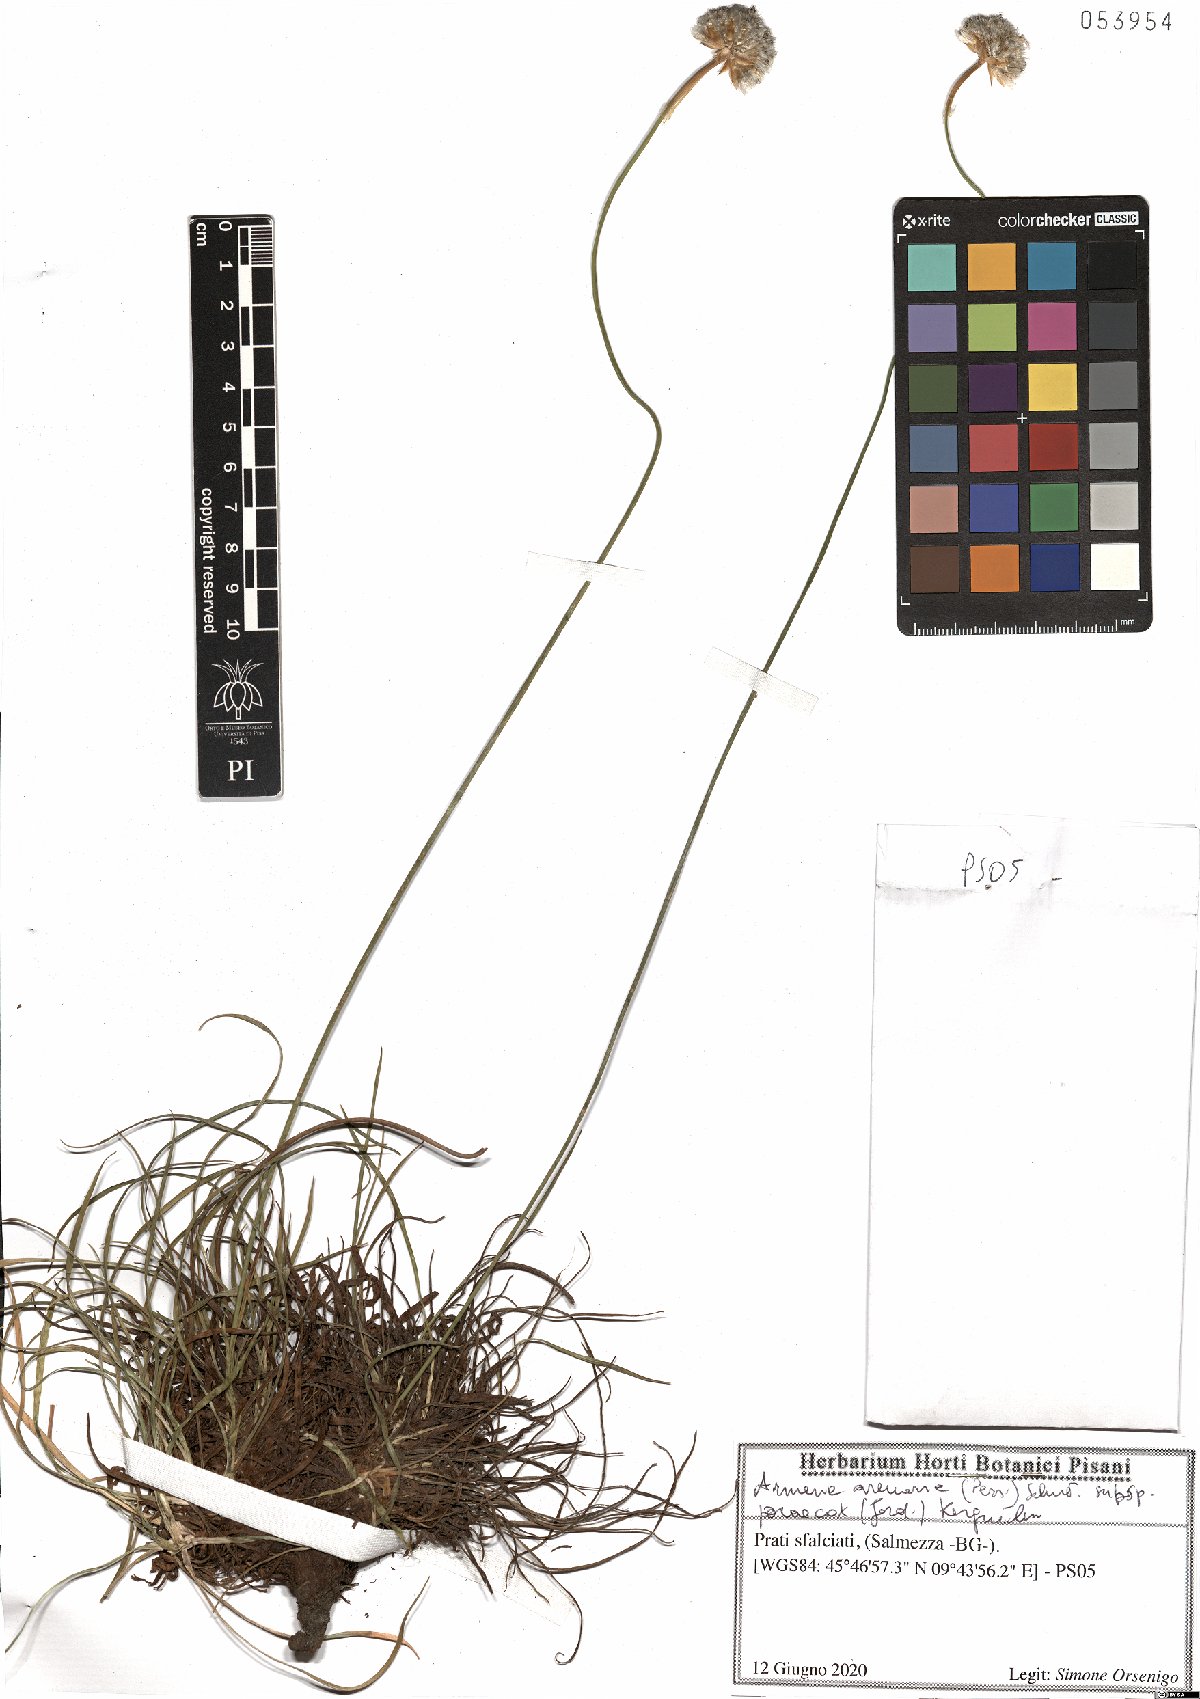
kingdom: Plantae
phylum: Tracheophyta
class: Magnoliopsida
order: Caryophyllales
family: Plumbaginaceae
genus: Armeria
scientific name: Armeria arenaria
